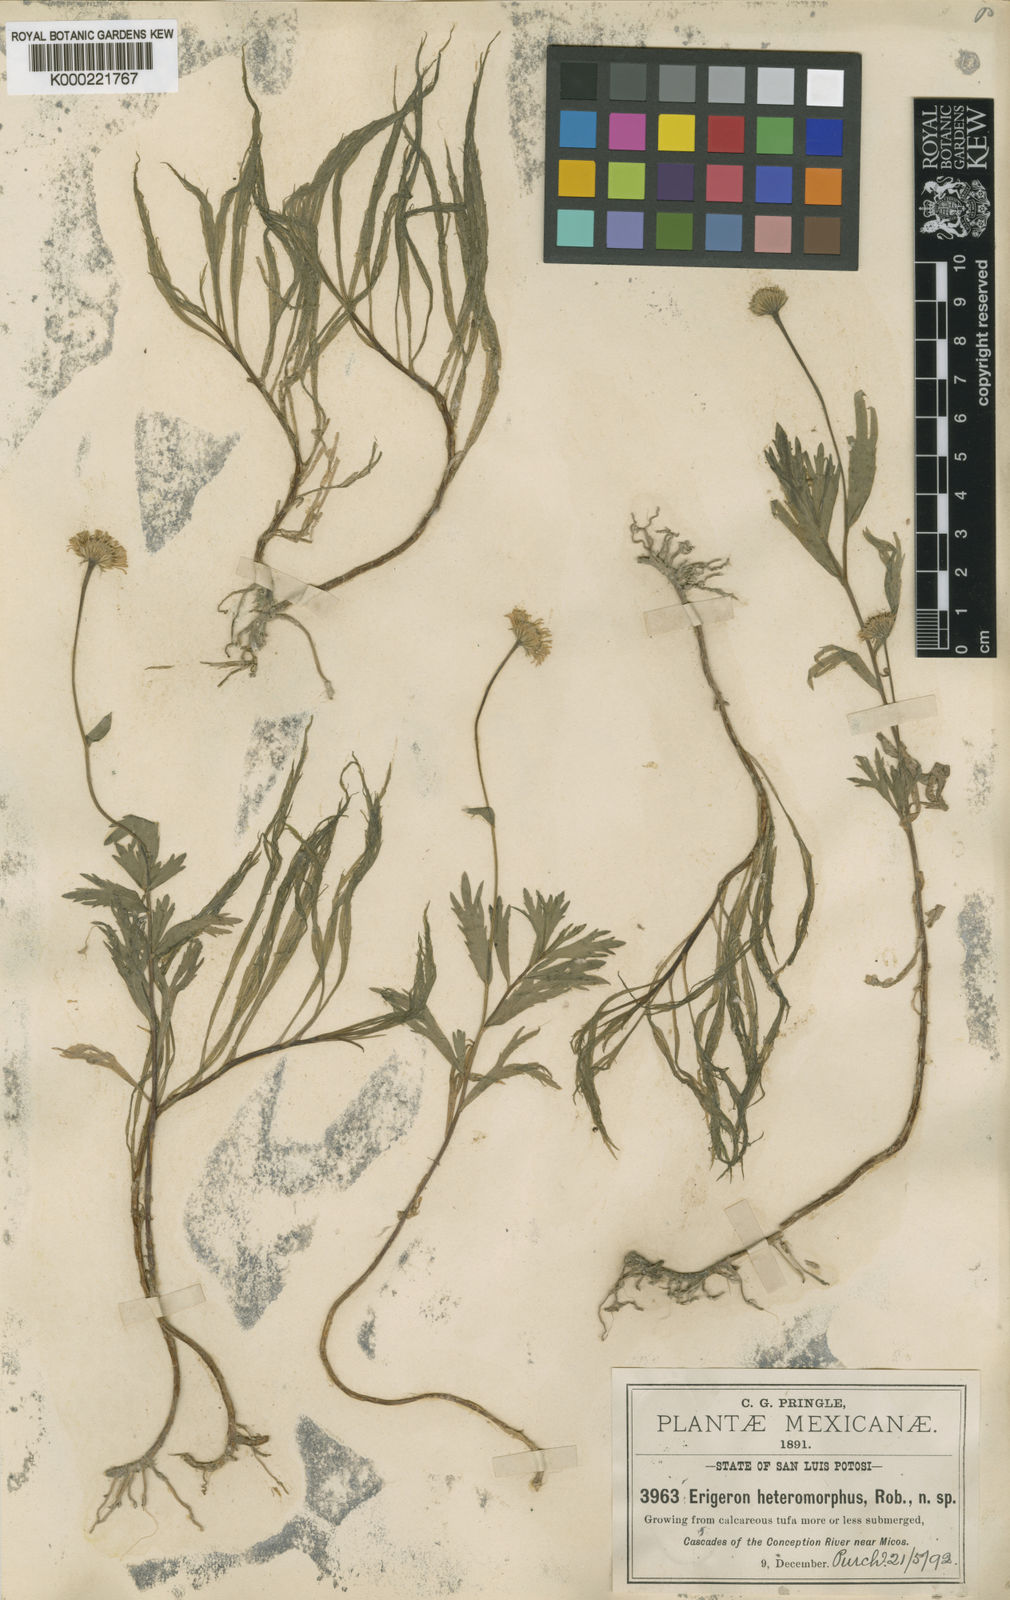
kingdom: Plantae
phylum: Tracheophyta
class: Magnoliopsida
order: Asterales
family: Asteraceae
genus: Erigeron
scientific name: Erigeron heteromorphus
